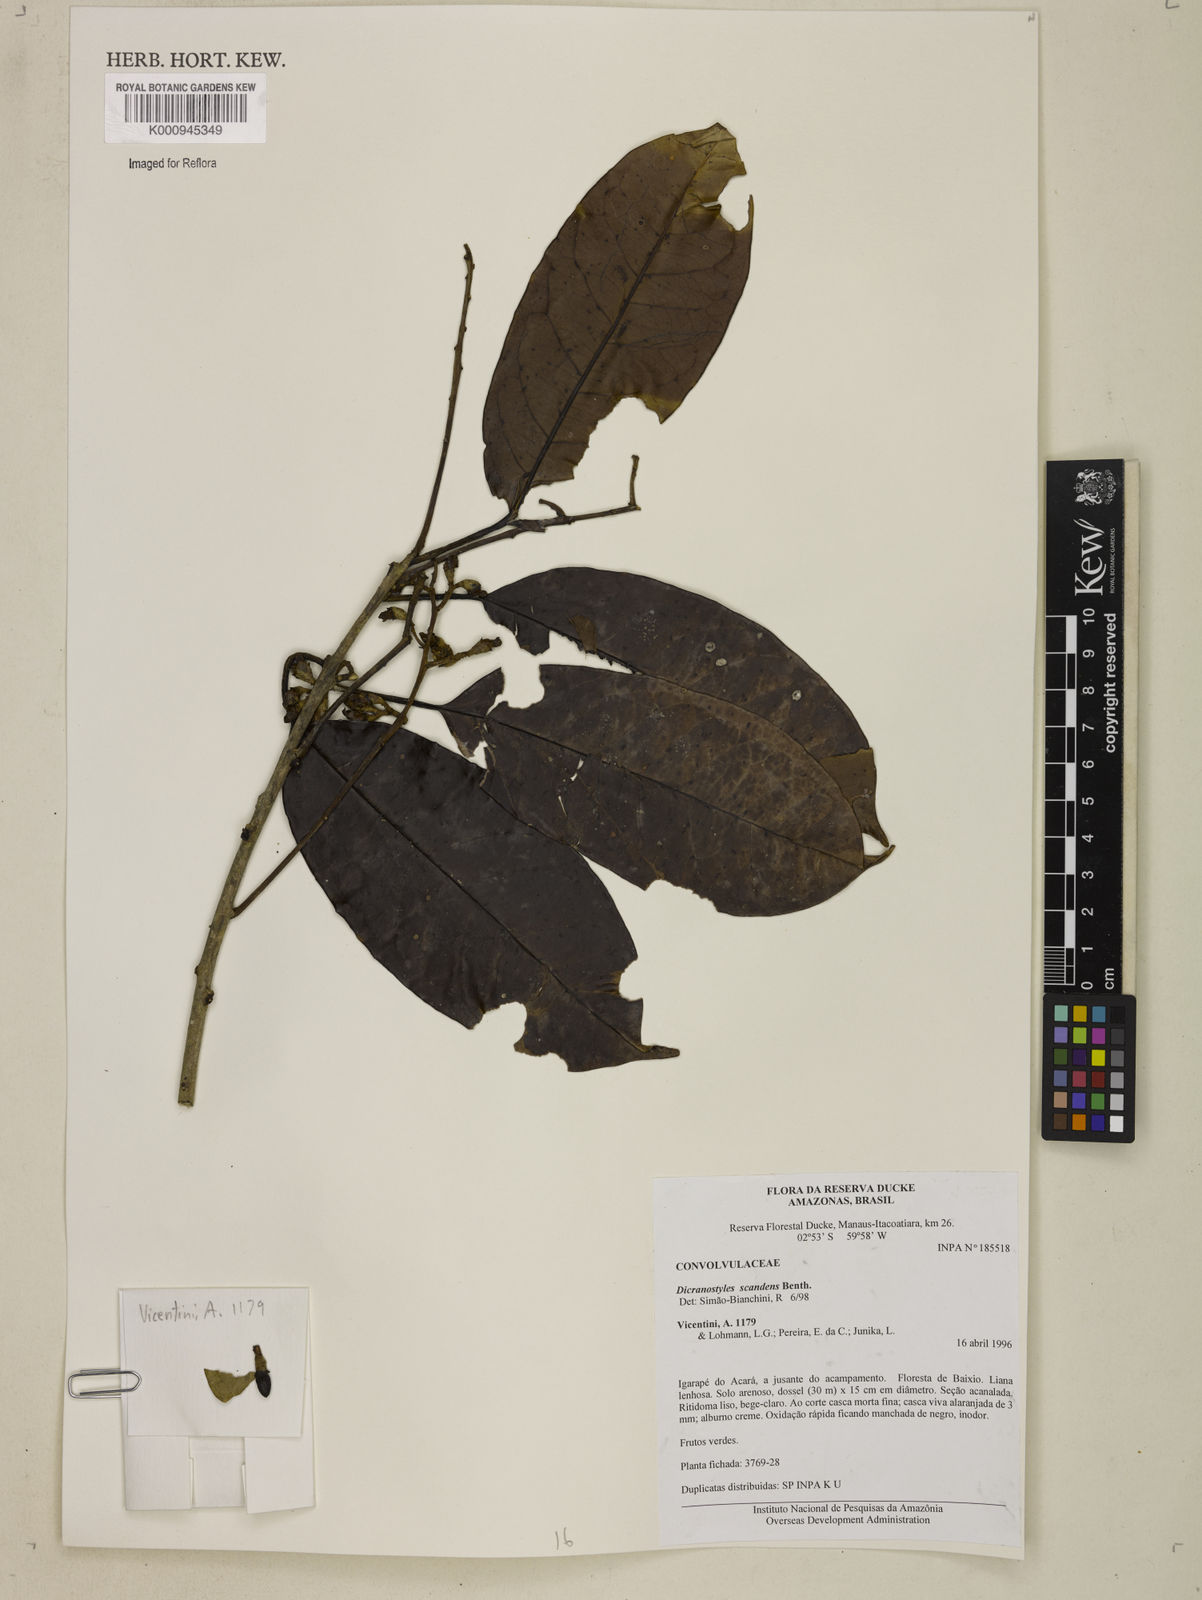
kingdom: Plantae
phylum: Tracheophyta
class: Magnoliopsida
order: Solanales
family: Convolvulaceae
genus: Dicranostyles
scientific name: Dicranostyles scandens
